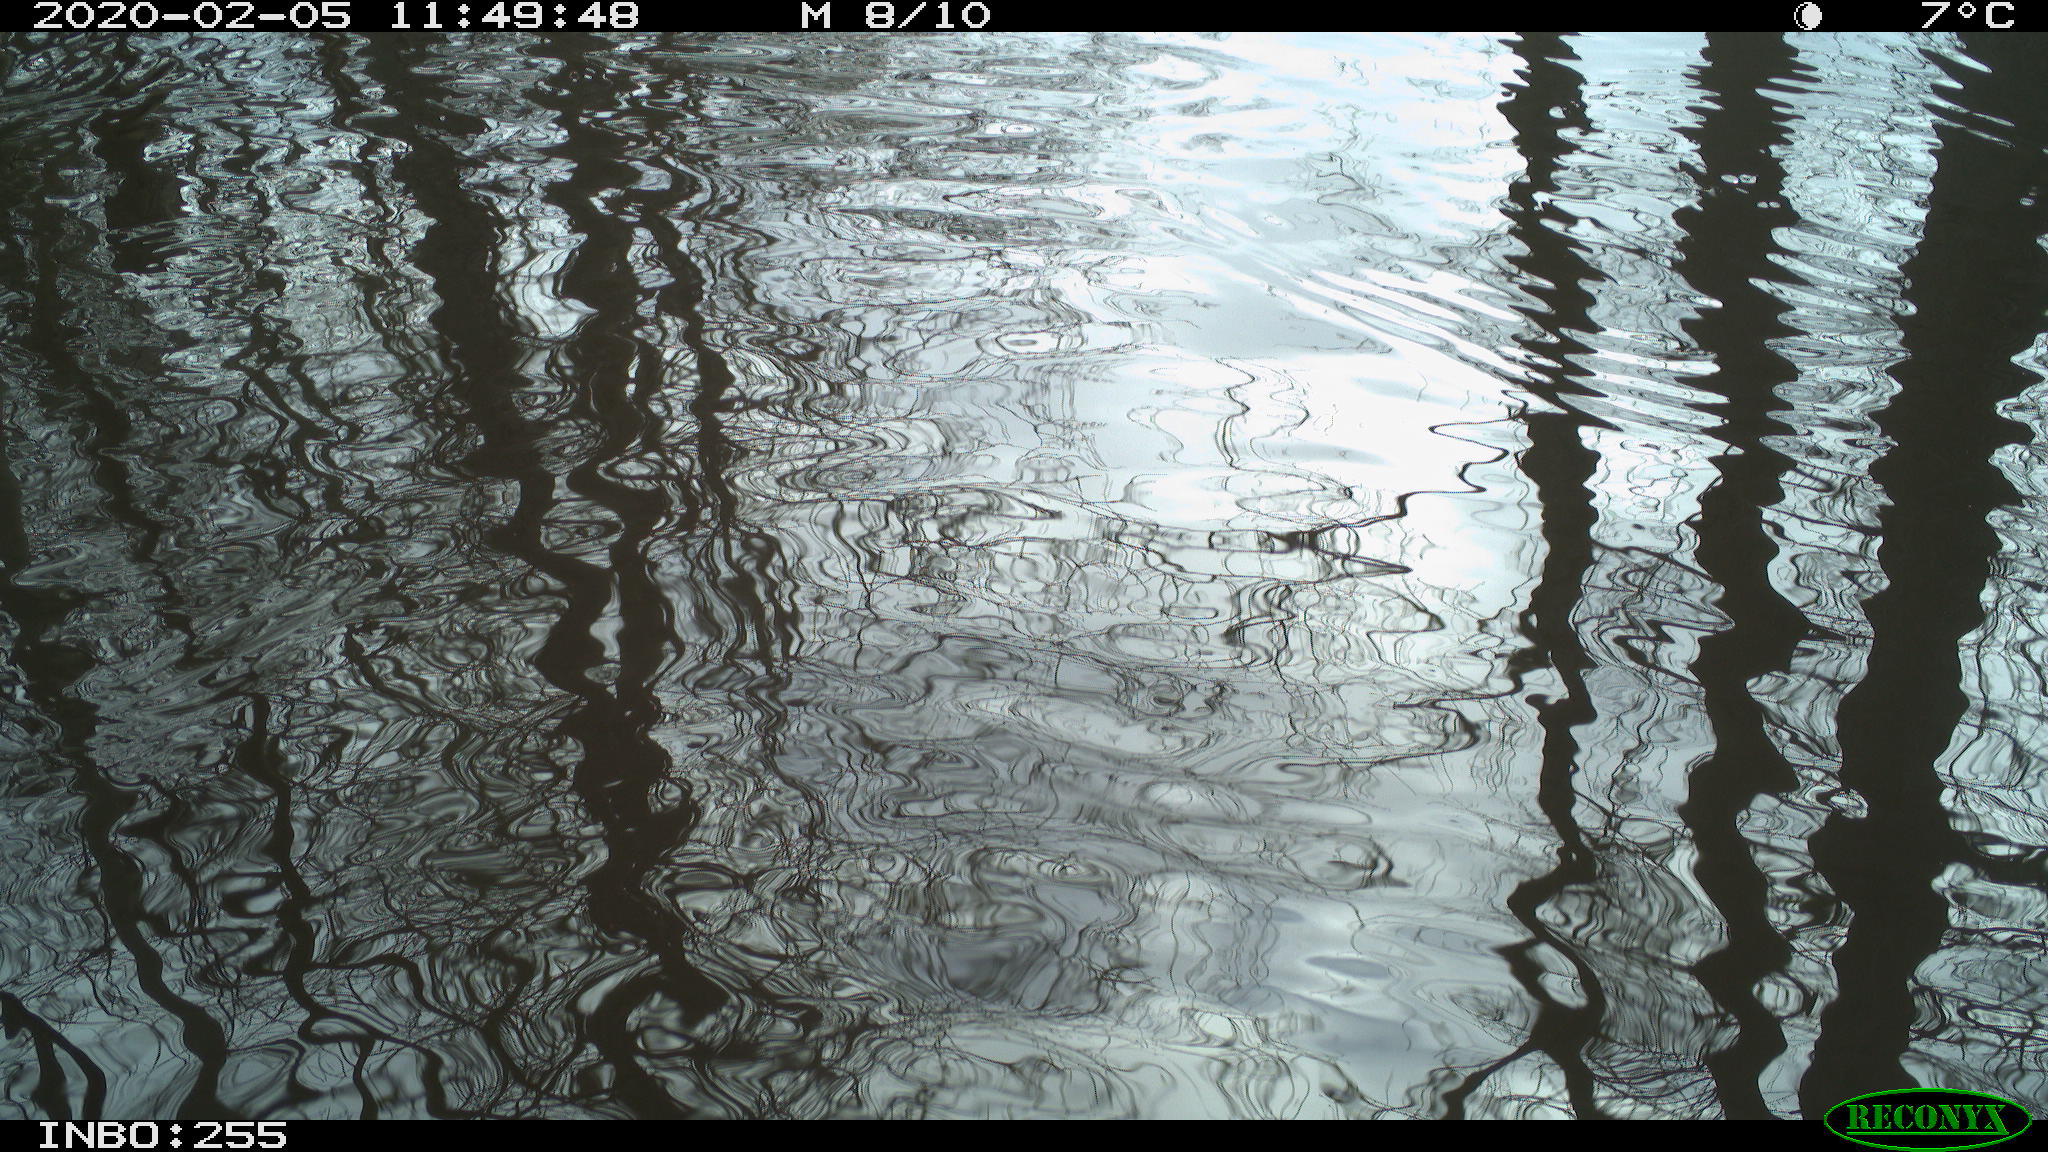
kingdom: Animalia
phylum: Chordata
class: Aves
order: Gruiformes
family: Rallidae
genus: Gallinula
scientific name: Gallinula chloropus
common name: Common moorhen
